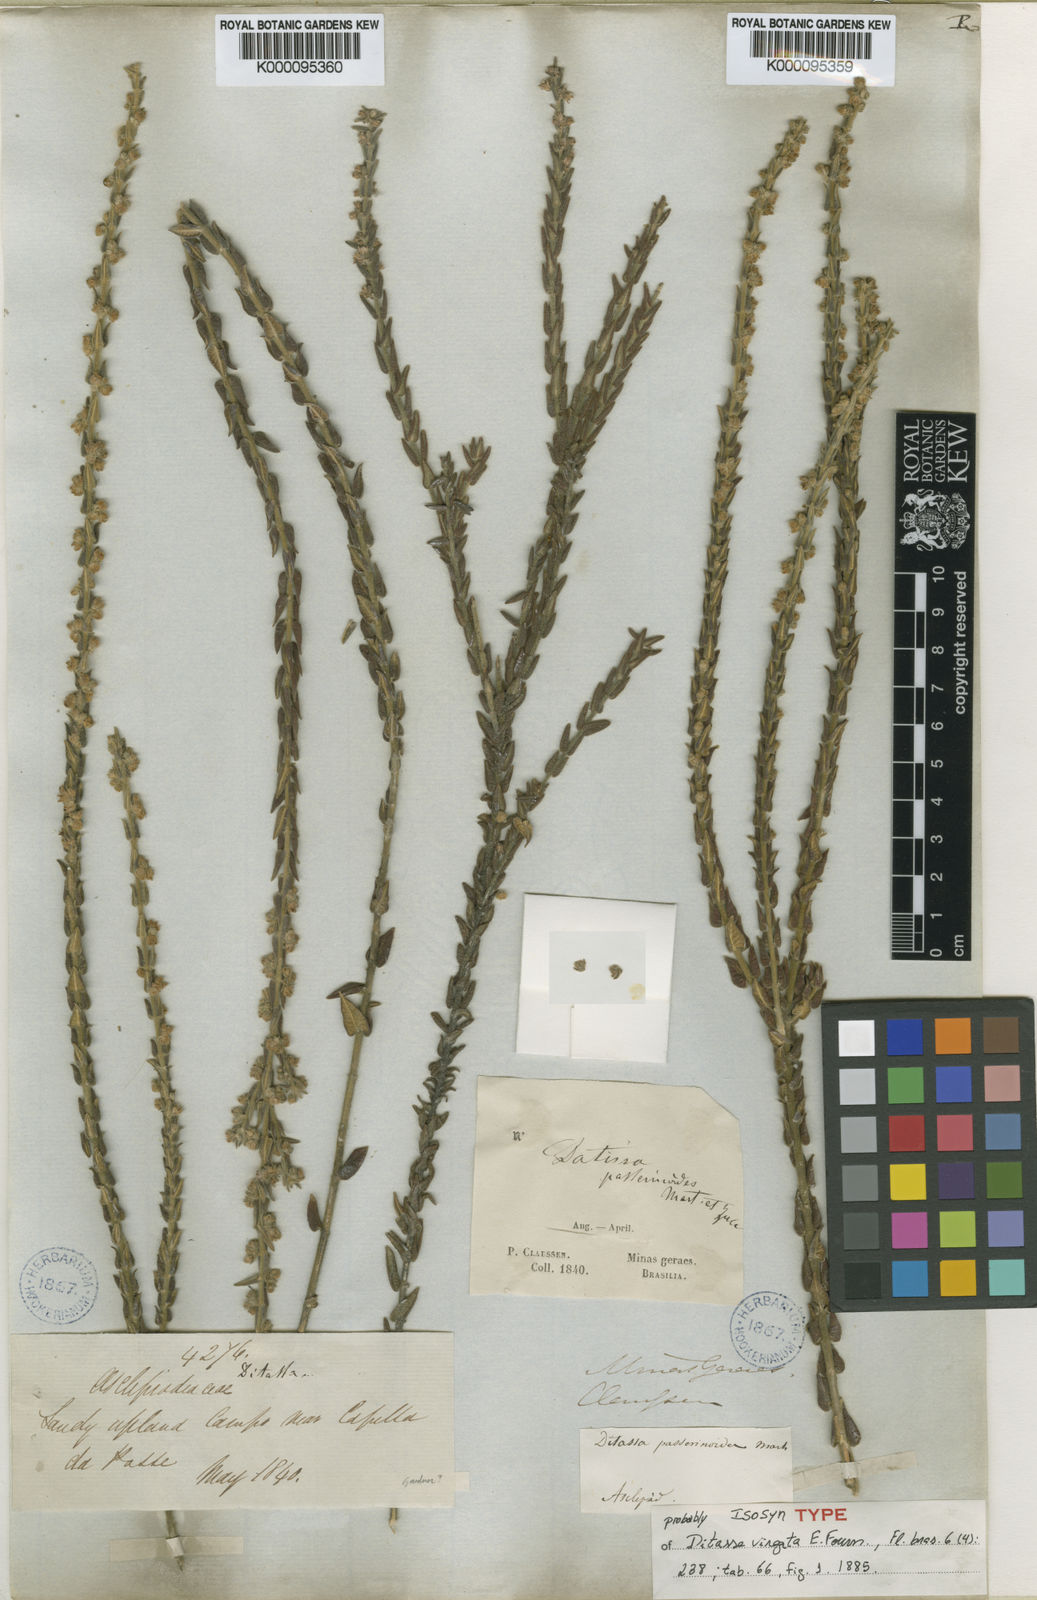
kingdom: Plantae
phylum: Tracheophyta
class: Magnoliopsida
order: Gentianales
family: Apocynaceae
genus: Minaria
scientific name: Minaria cordata
